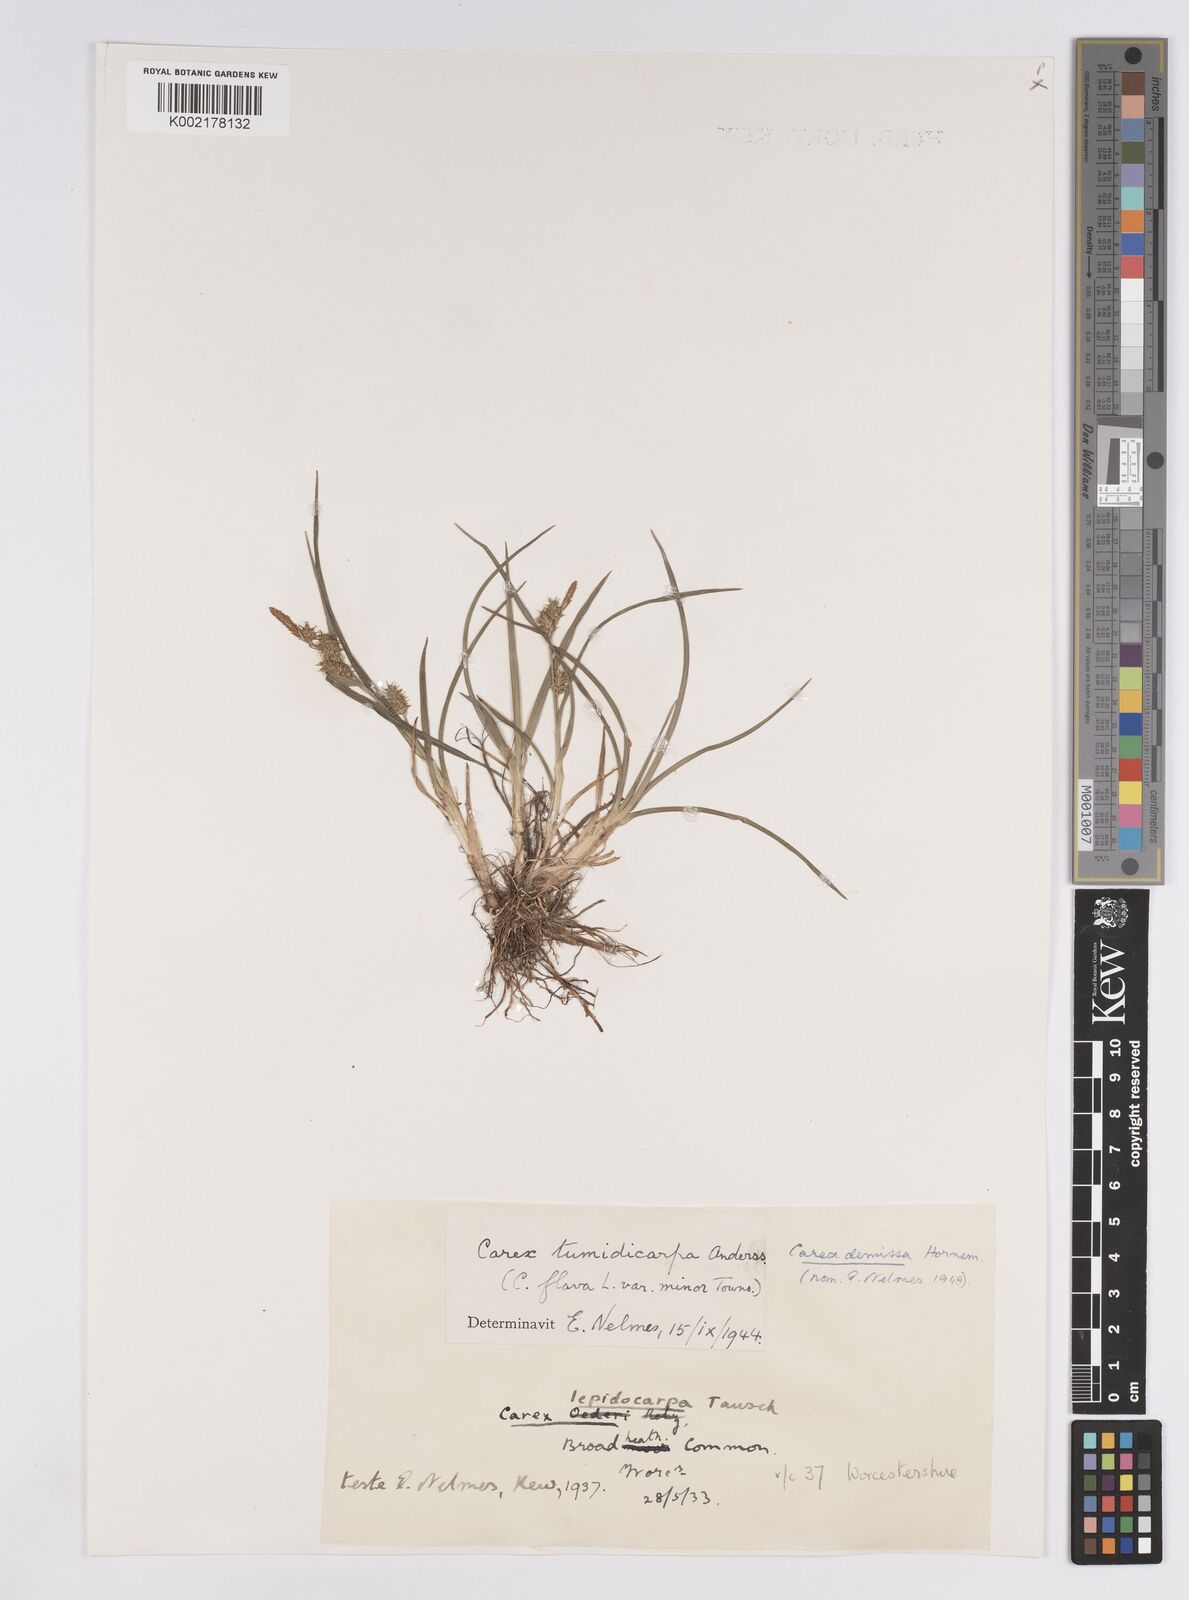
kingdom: Plantae
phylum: Tracheophyta
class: Liliopsida
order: Poales
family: Cyperaceae
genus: Carex
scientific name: Carex demissa
